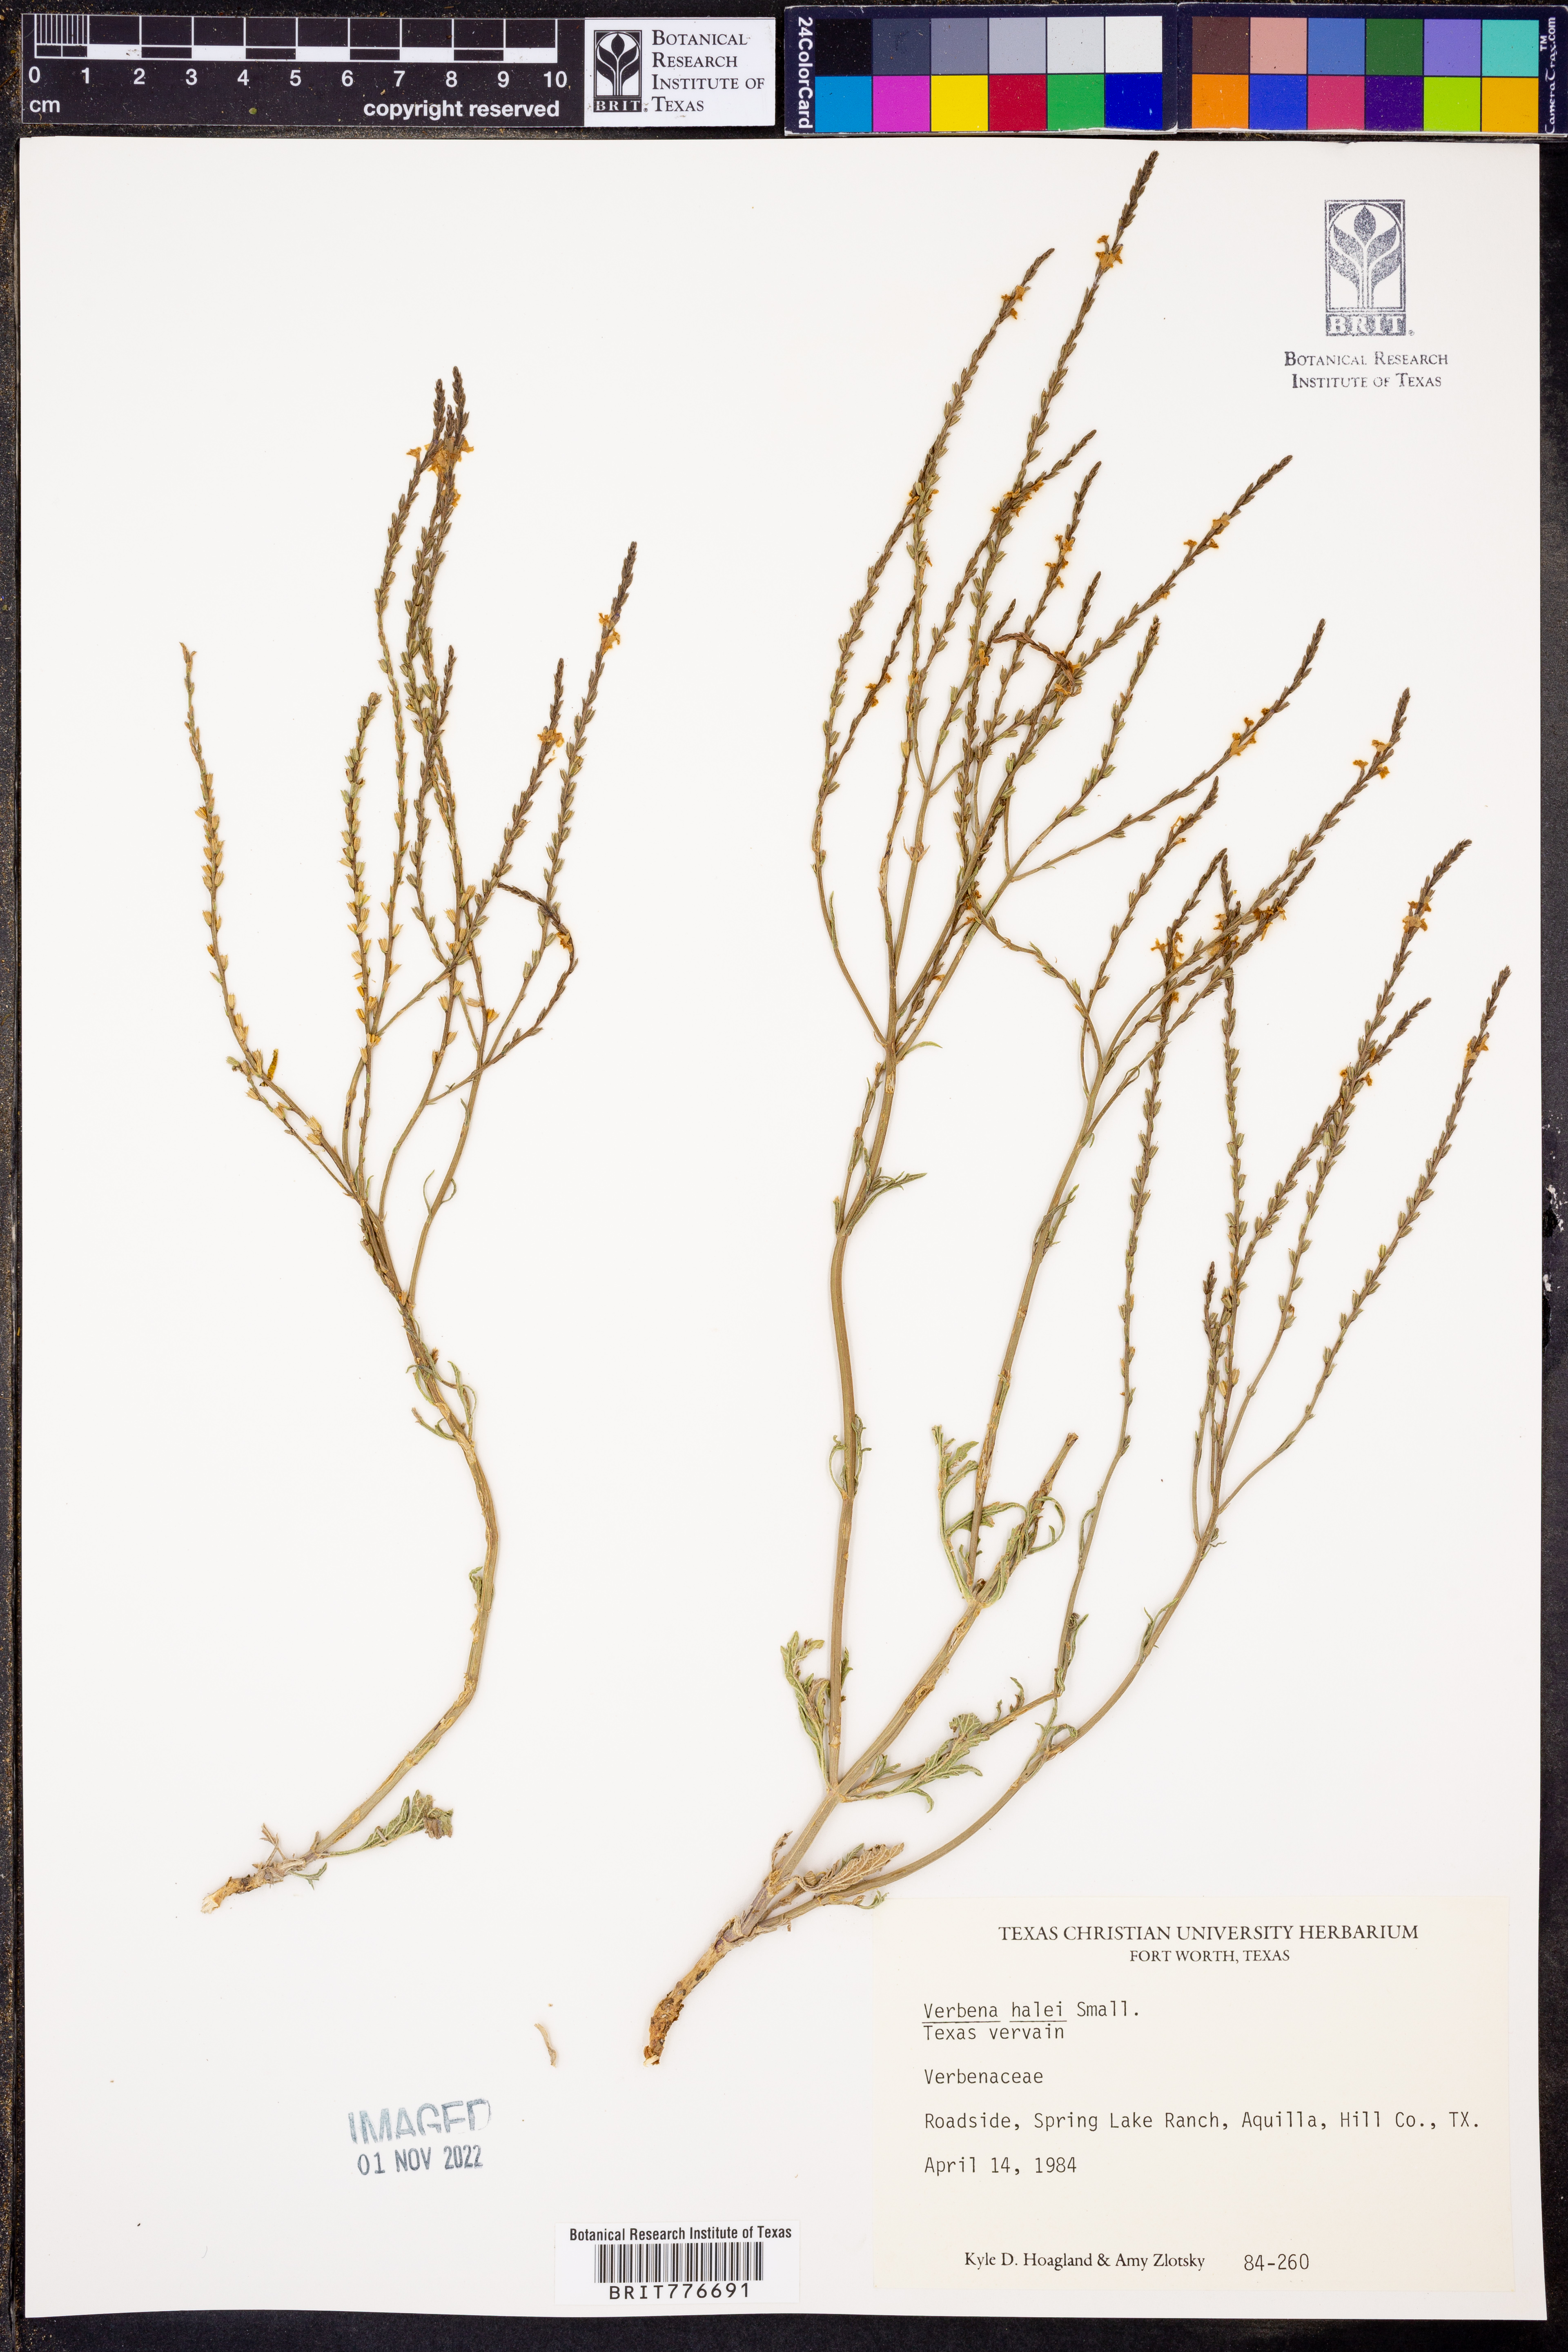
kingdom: Plantae
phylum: Tracheophyta
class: Magnoliopsida
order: Lamiales
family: Verbenaceae
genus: Verbena
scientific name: Verbena halei
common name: Texas vervain
